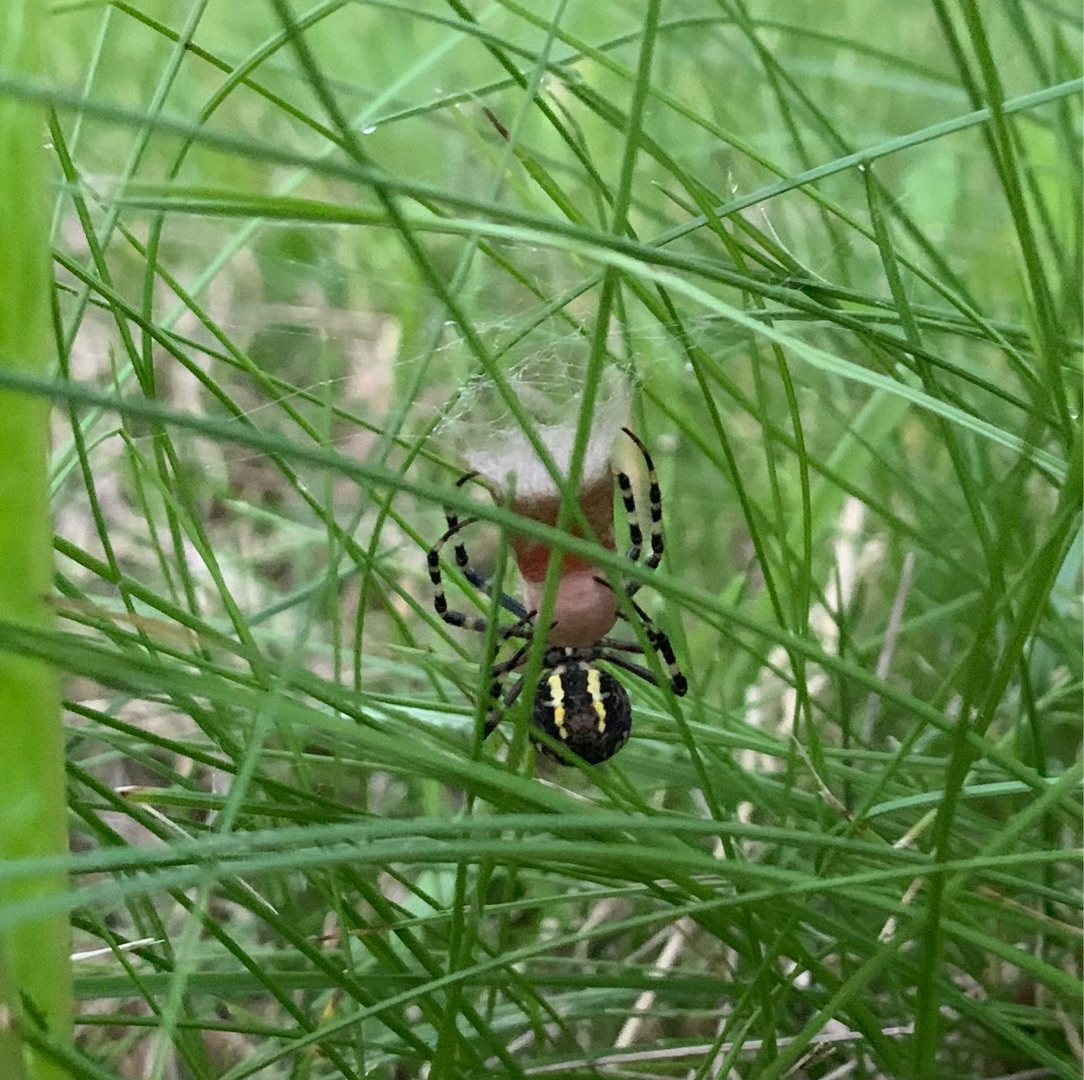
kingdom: Animalia
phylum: Arthropoda
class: Arachnida
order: Araneae
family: Araneidae
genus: Argiope
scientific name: Argiope bruennichi
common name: Hvepseedderkop
